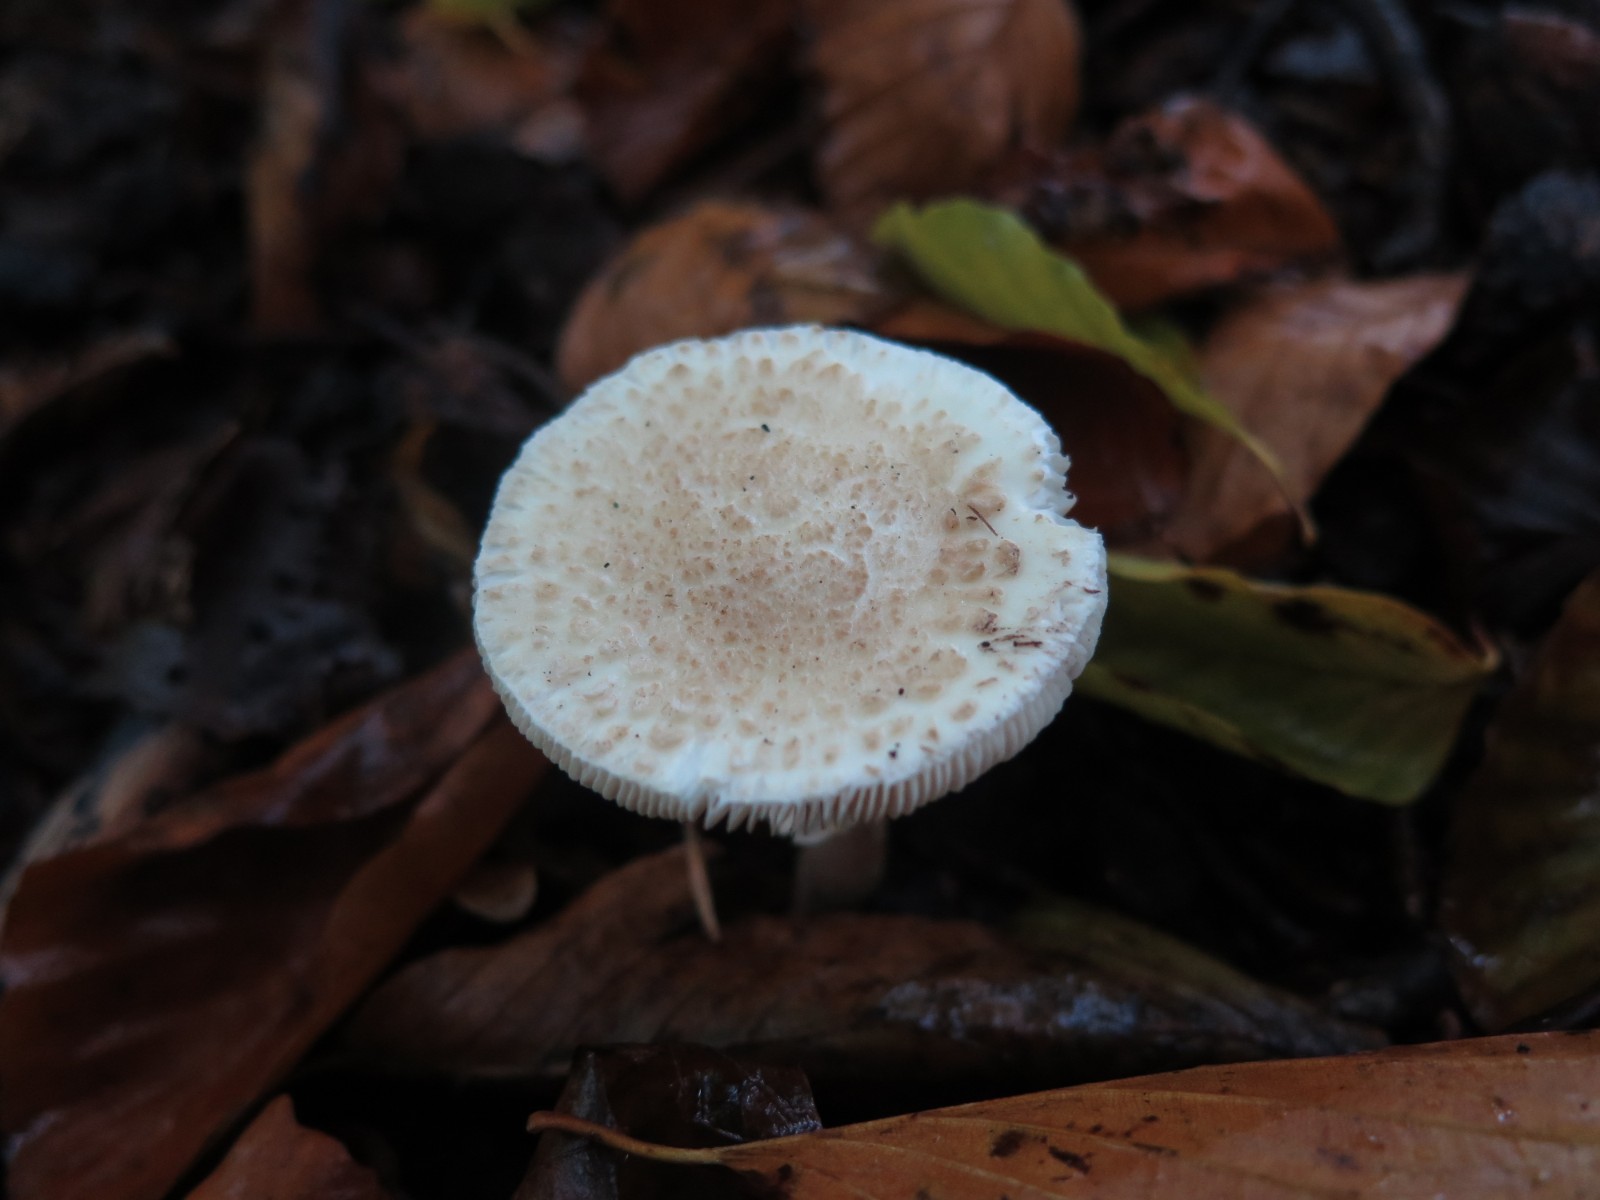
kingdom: Fungi
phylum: Basidiomycota
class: Agaricomycetes
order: Agaricales
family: Amanitaceae
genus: Amanita
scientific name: Amanita
